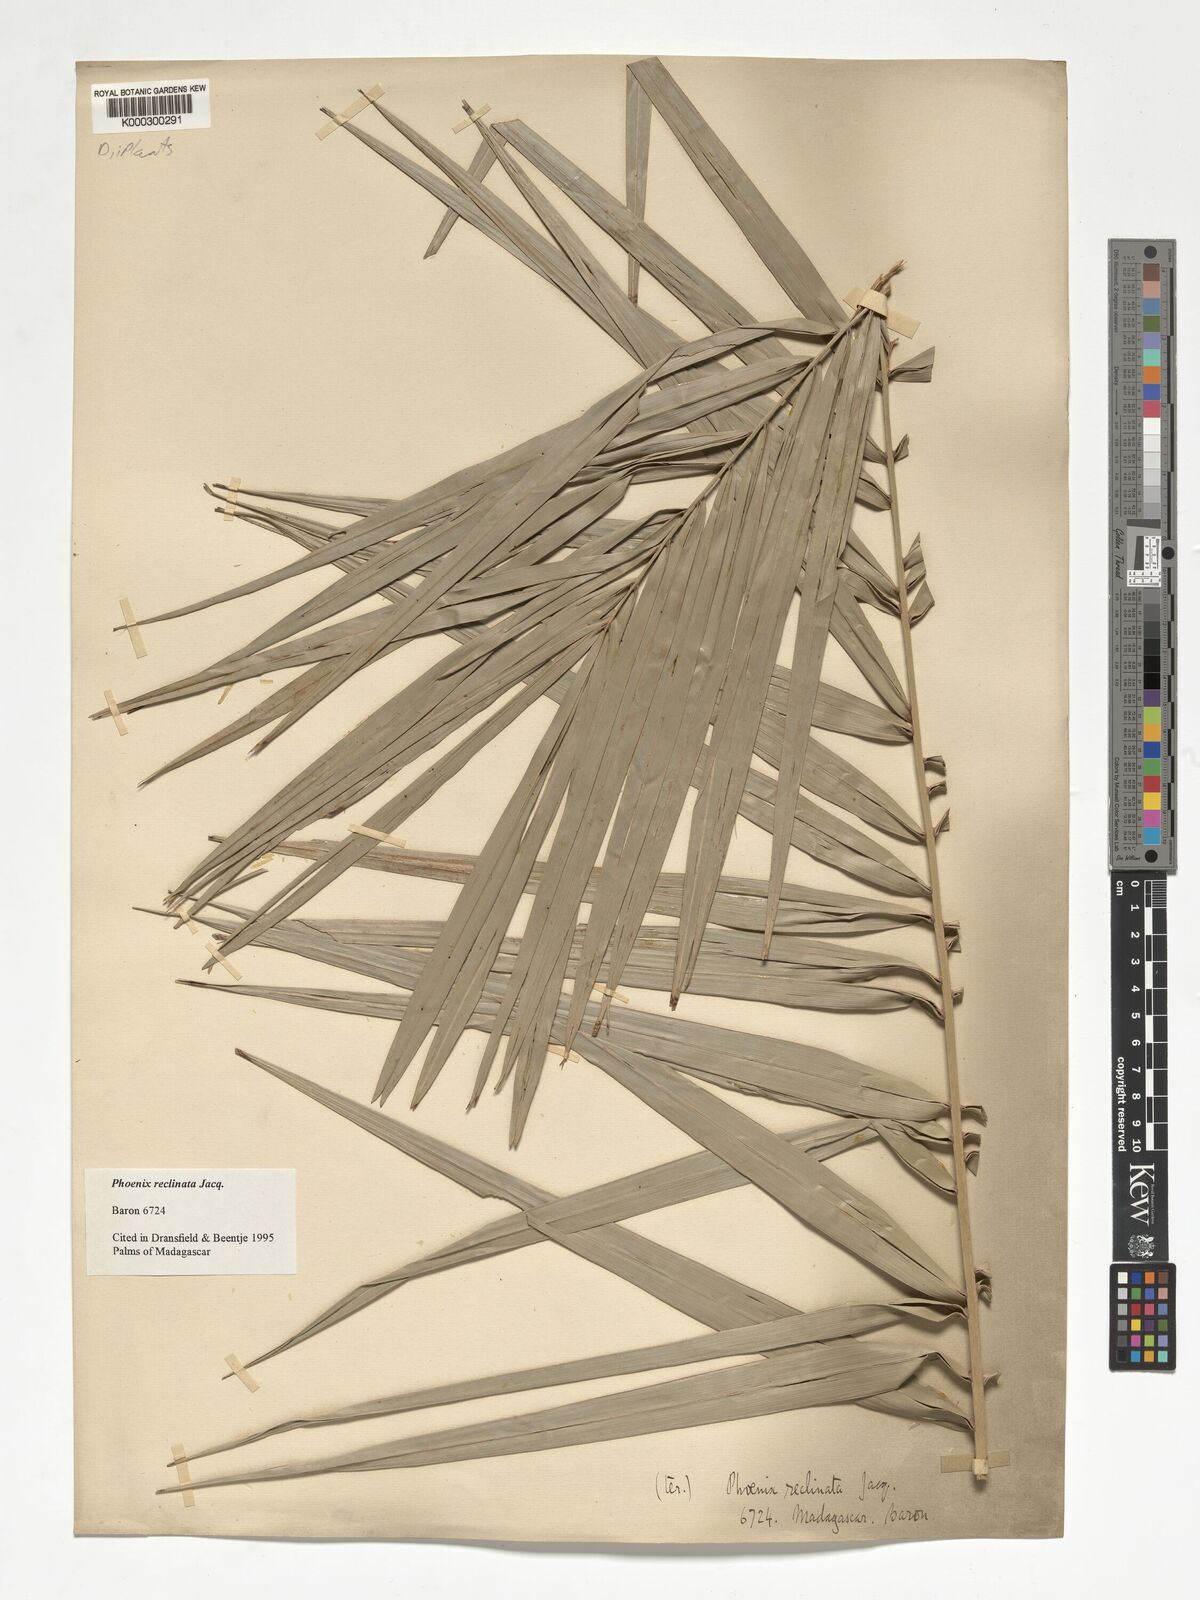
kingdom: Plantae
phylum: Tracheophyta
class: Liliopsida
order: Arecales
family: Arecaceae
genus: Phoenix
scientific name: Phoenix reclinata
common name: Senegal date palm
